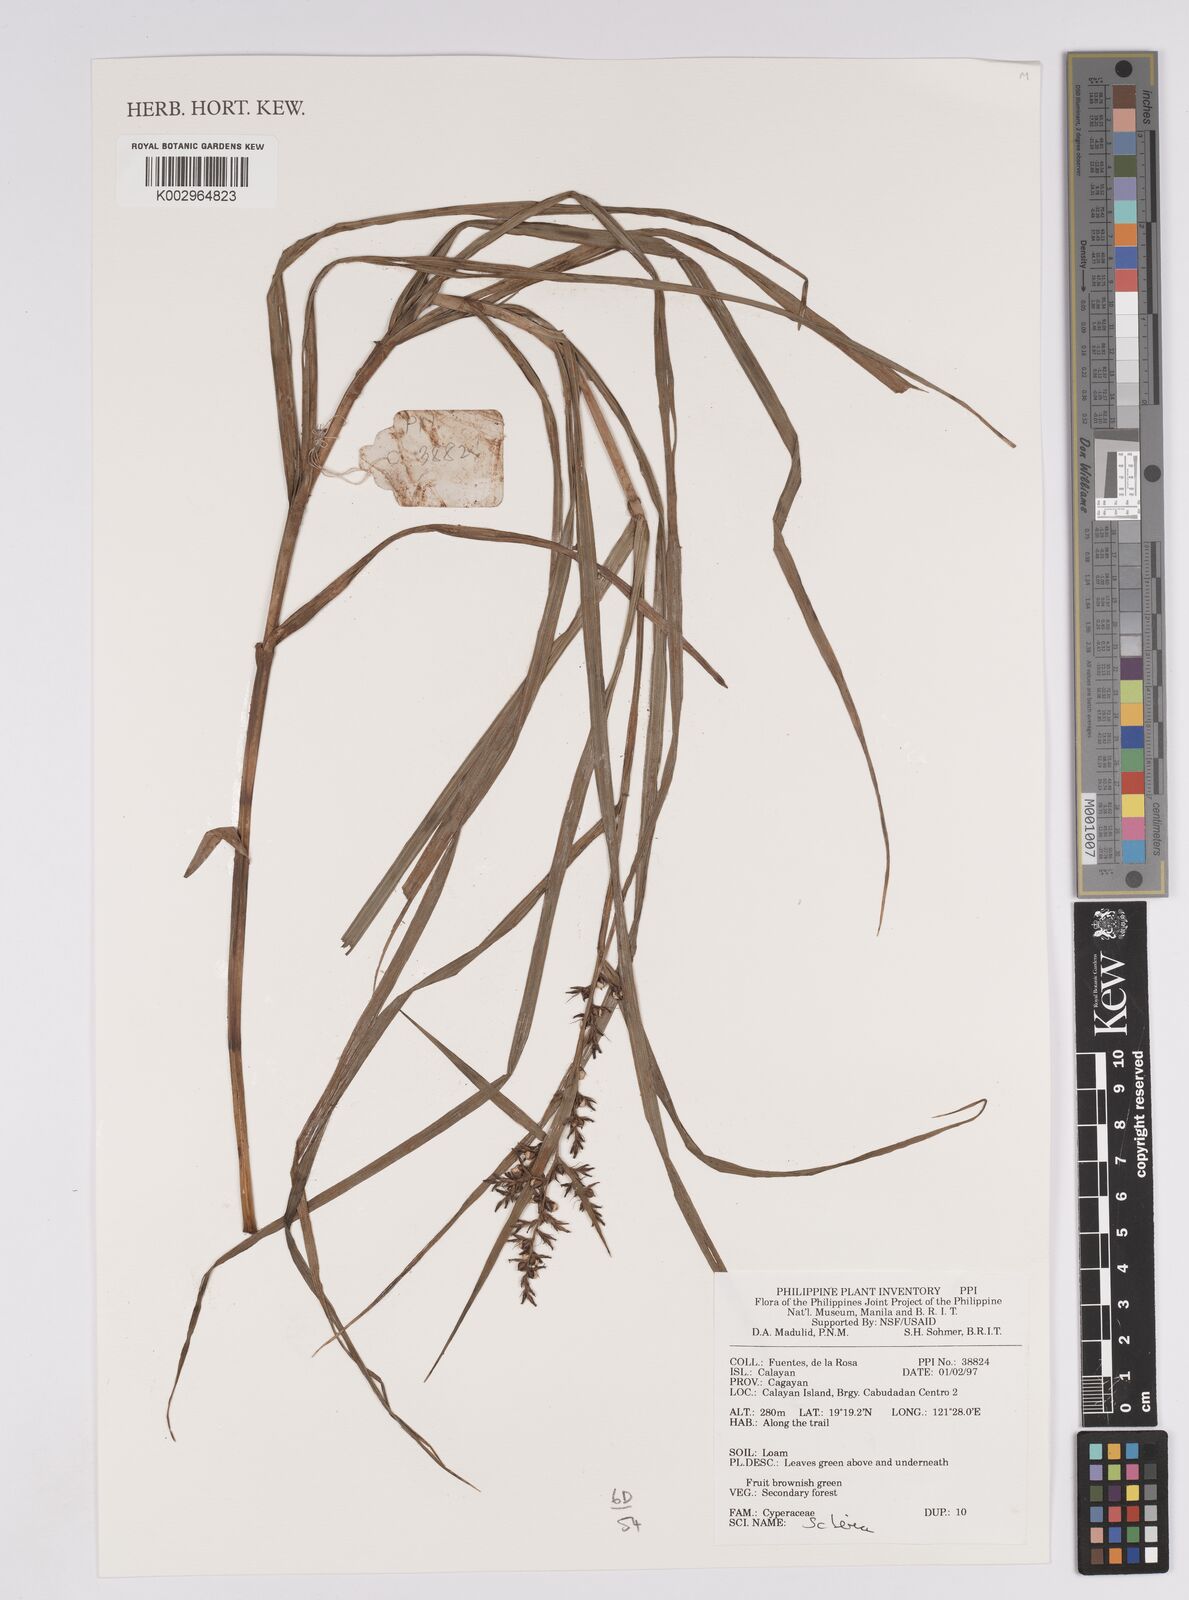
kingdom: Plantae
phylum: Tracheophyta
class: Liliopsida
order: Poales
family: Cyperaceae
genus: Scleria
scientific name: Scleria
